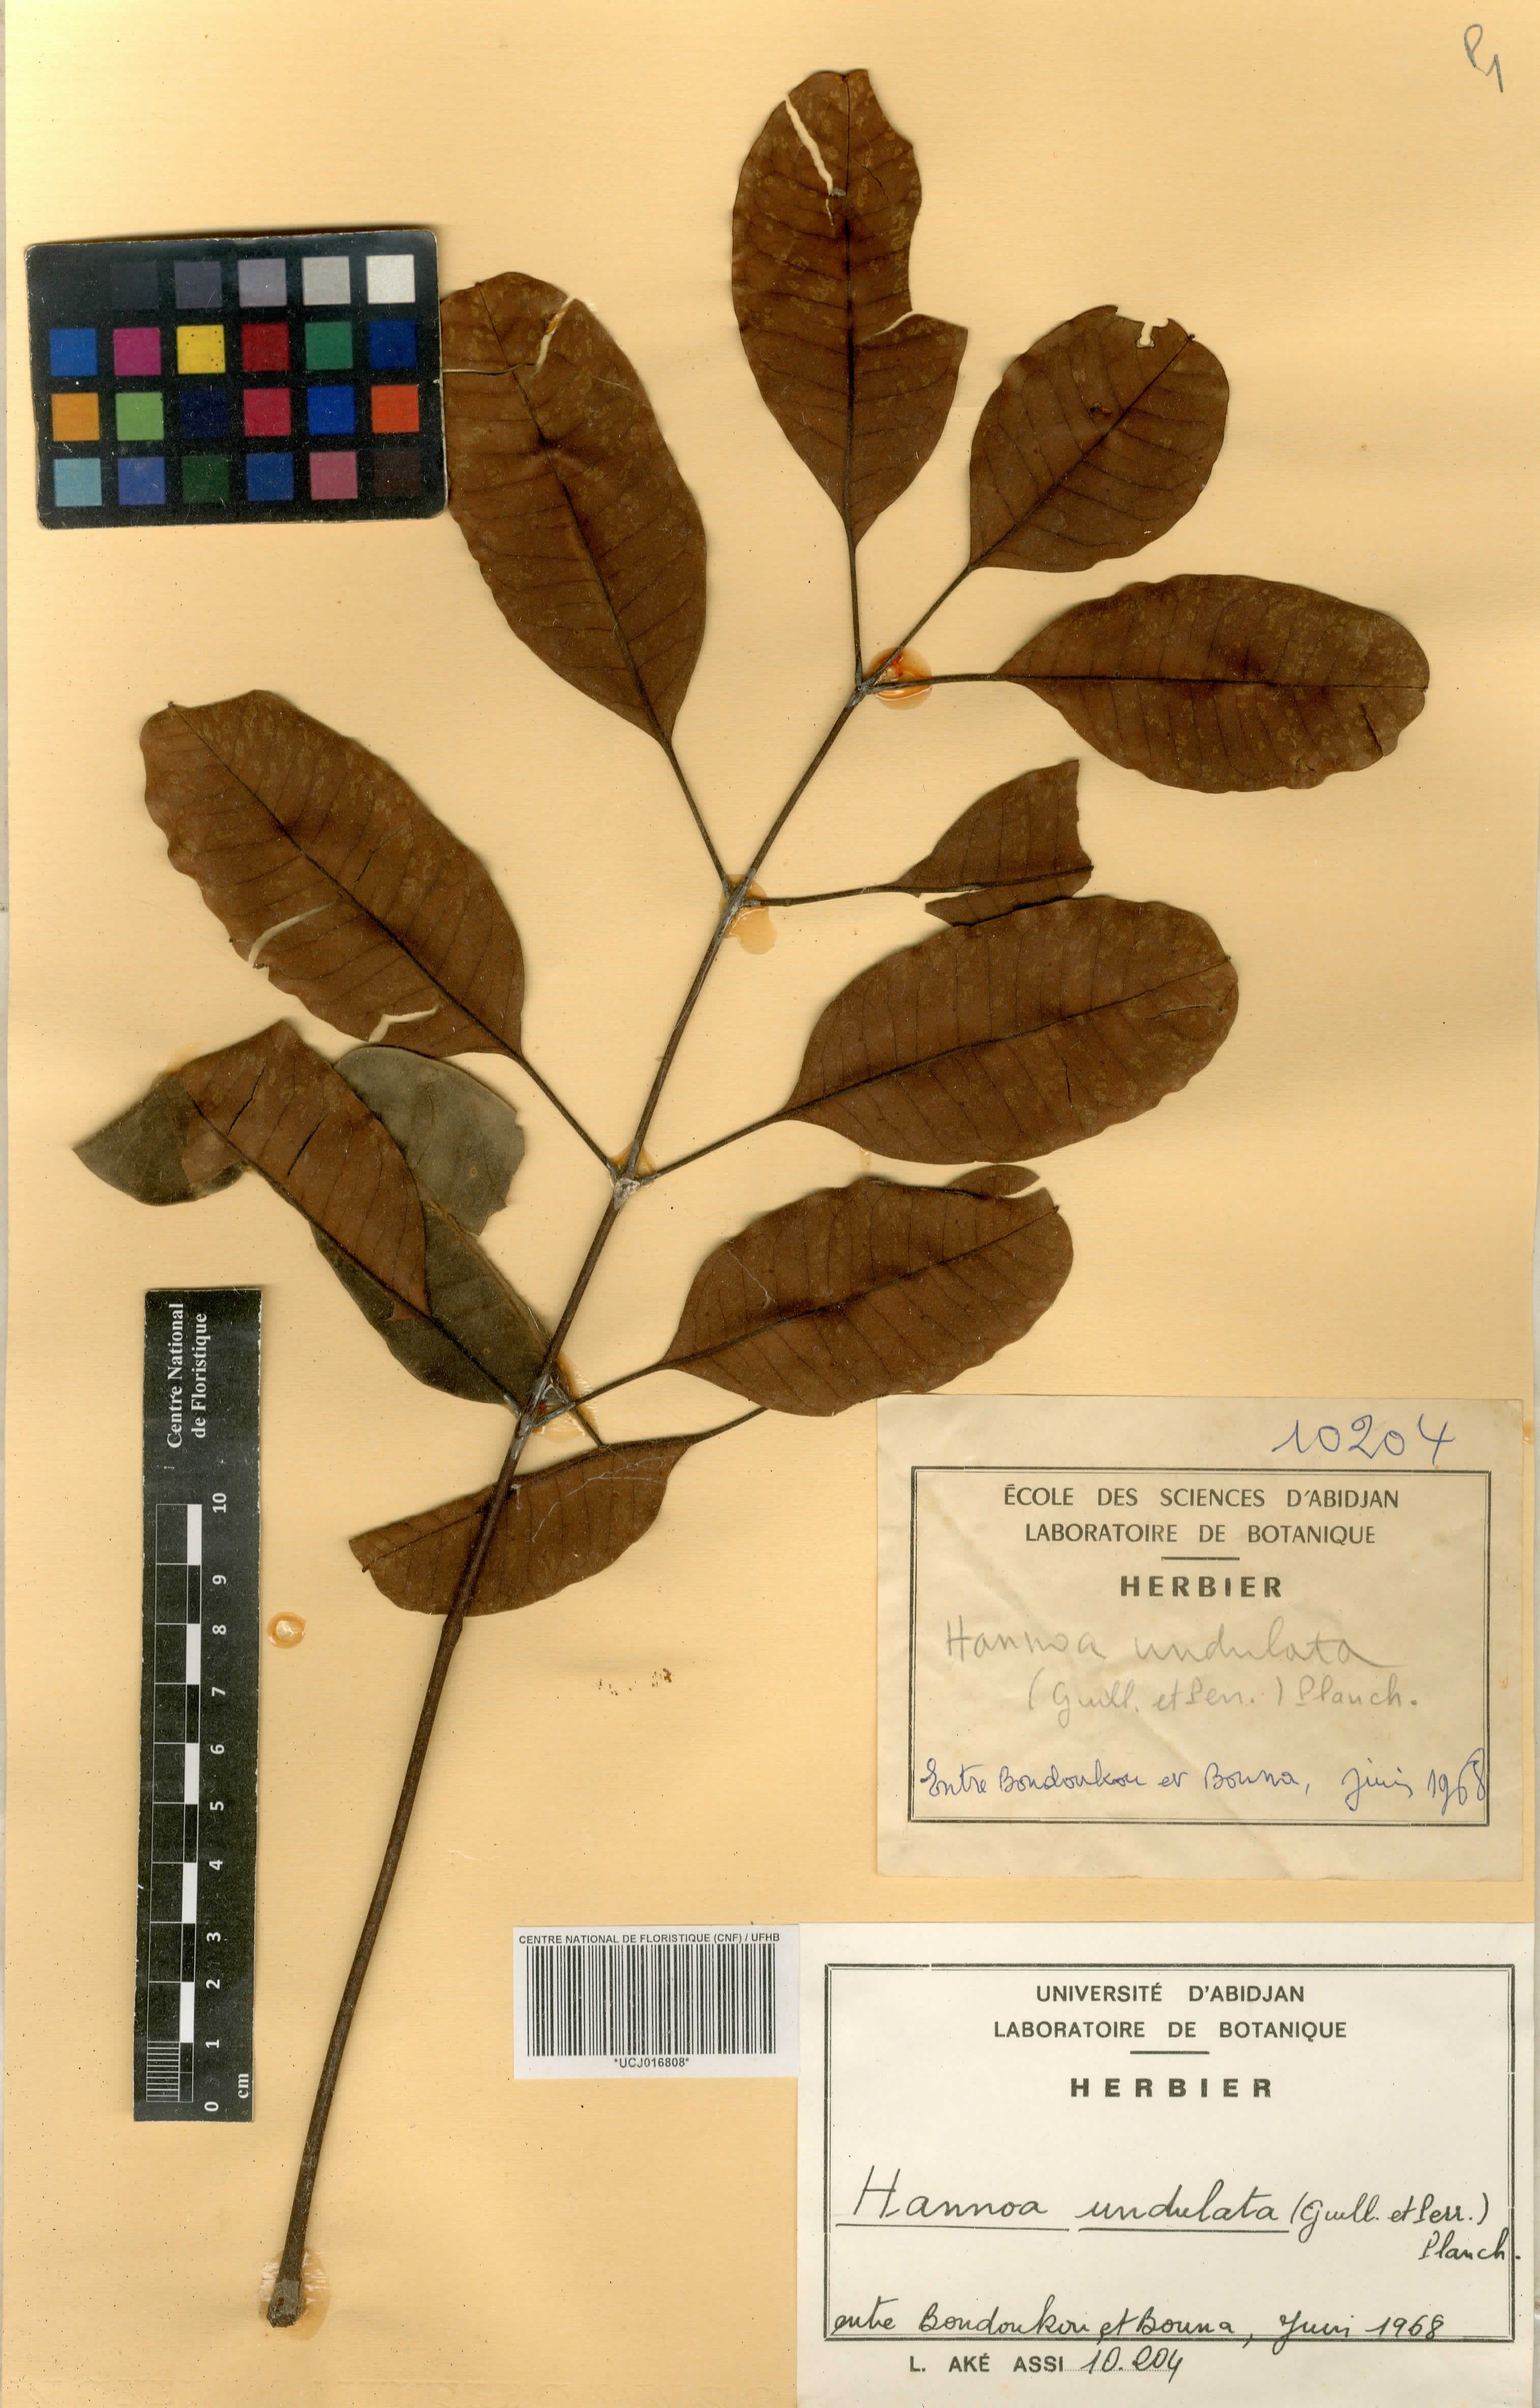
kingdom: Plantae
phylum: Tracheophyta
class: Magnoliopsida
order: Sapindales
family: Simaroubaceae
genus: Odyendyea
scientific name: Odyendyea klaineana
